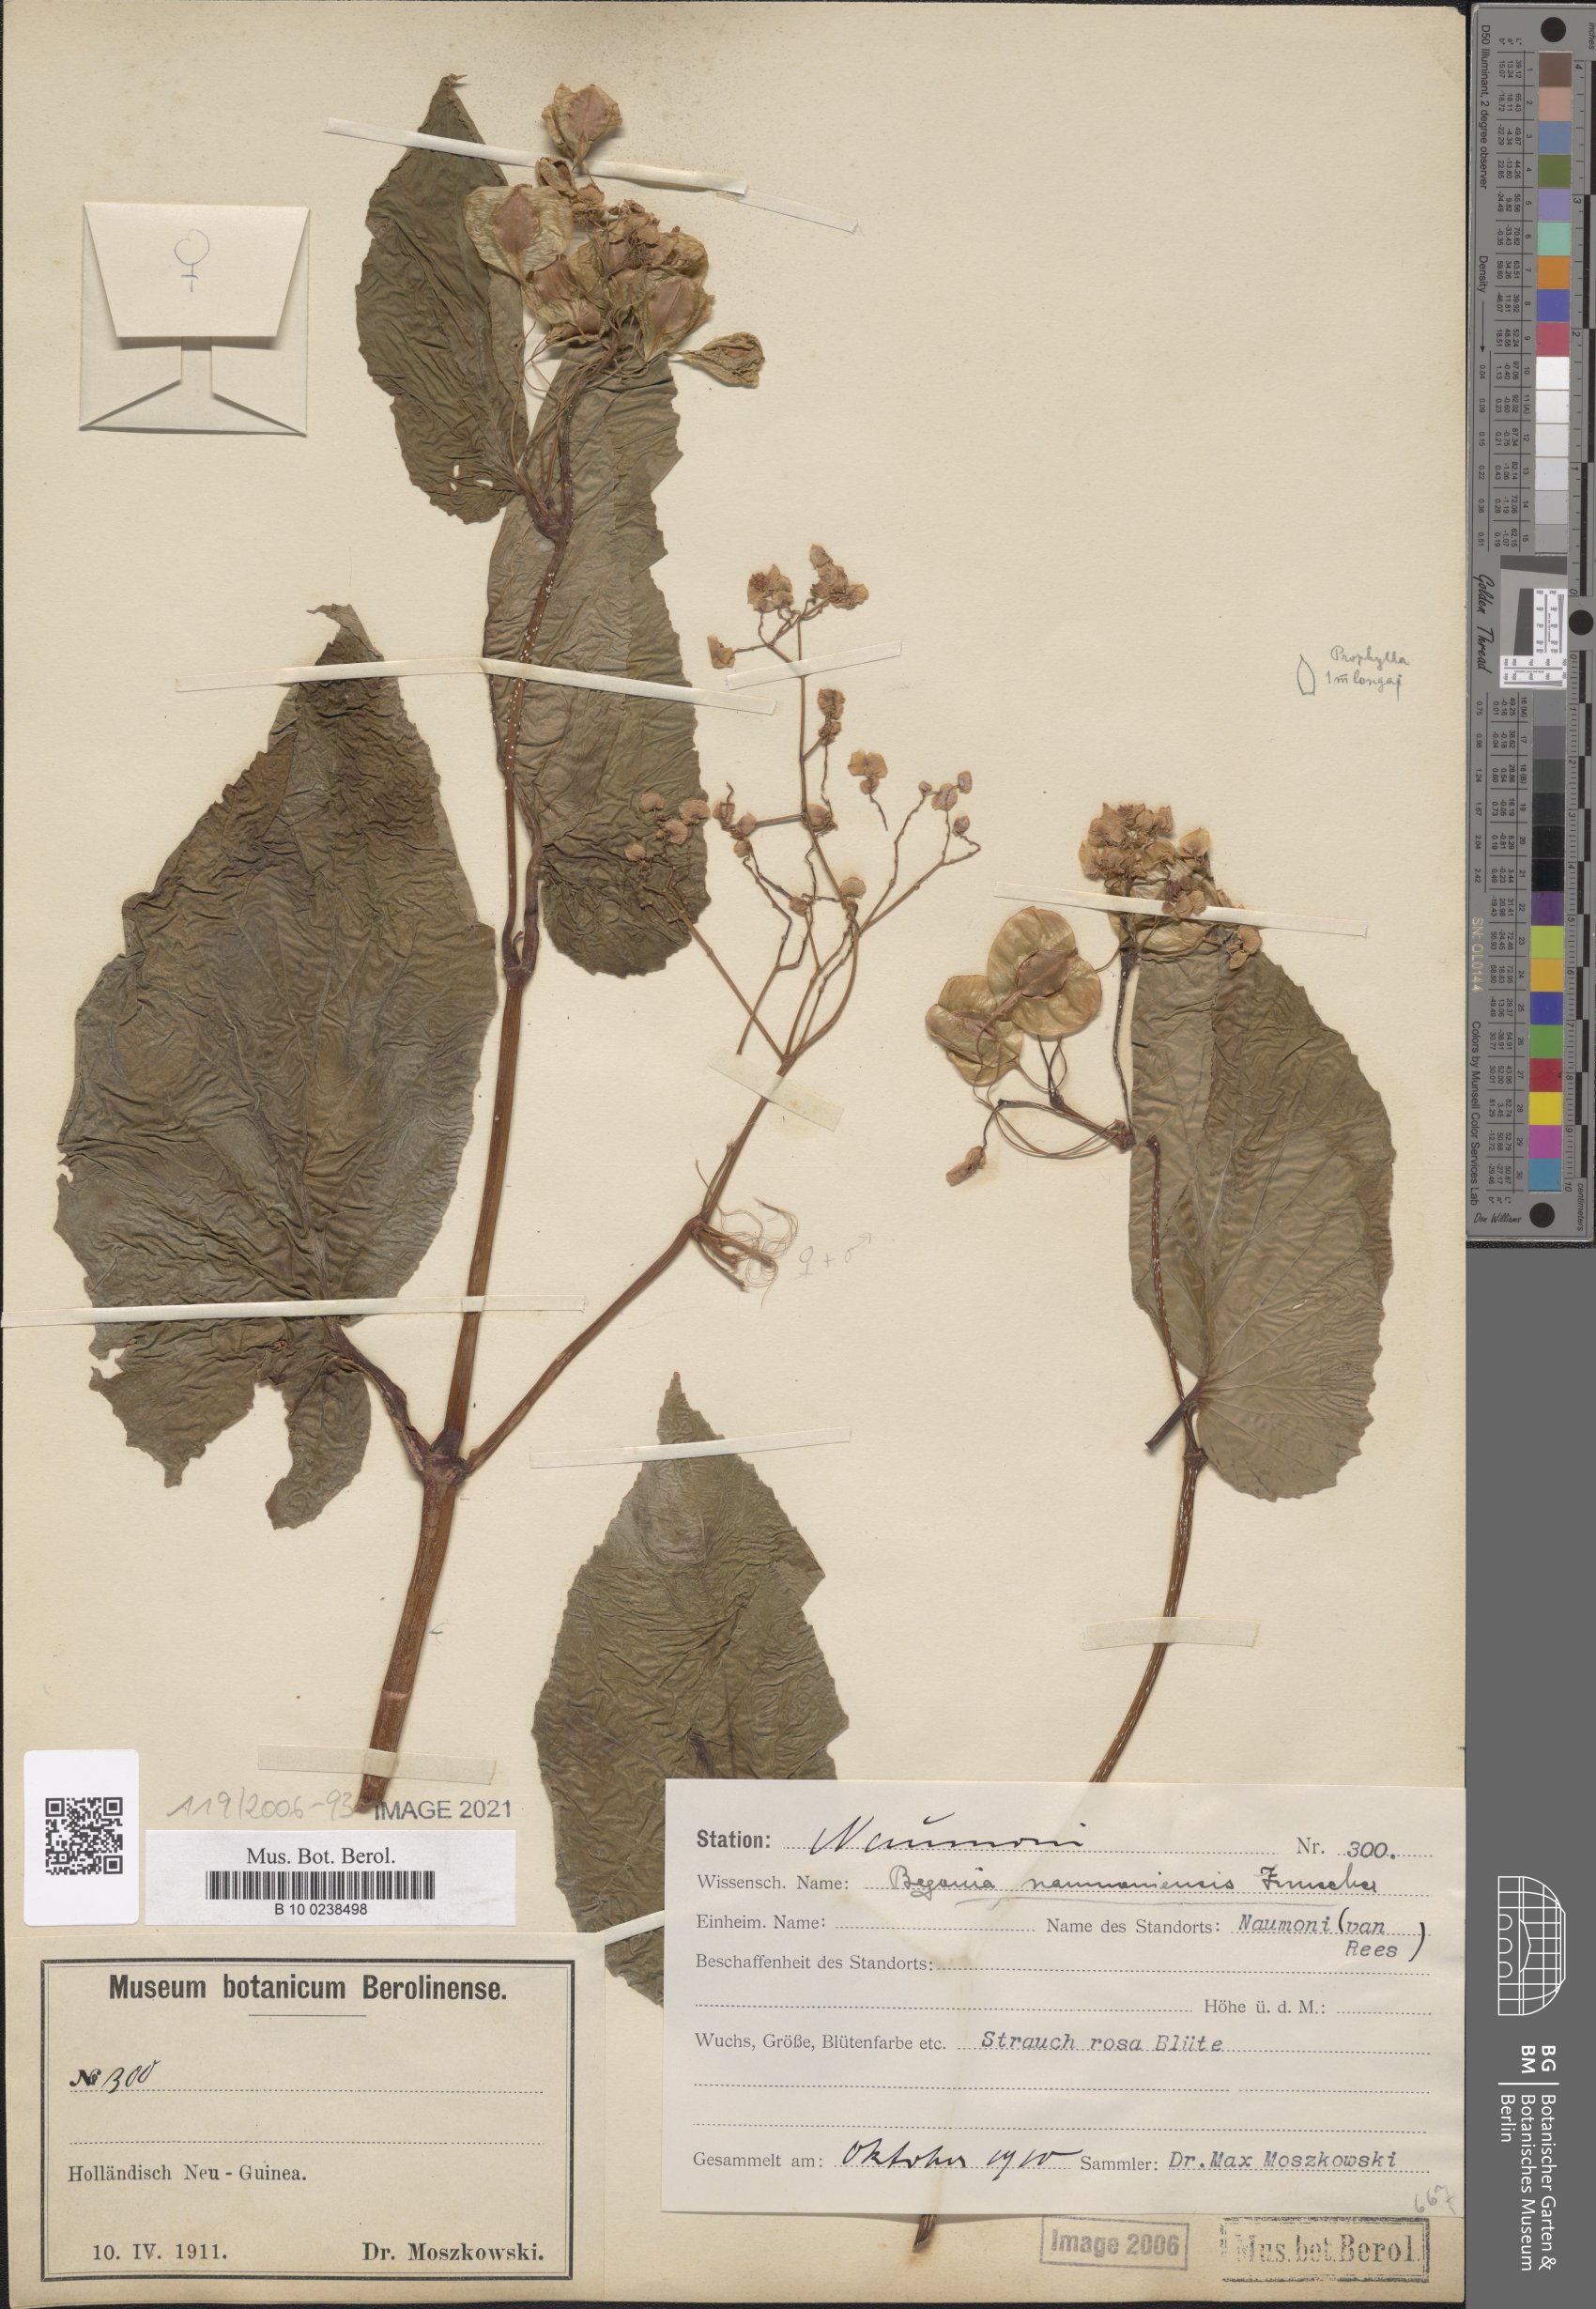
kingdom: Plantae
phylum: Tracheophyta
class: Magnoliopsida
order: Cucurbitales
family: Begoniaceae
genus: Begonia
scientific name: Begonia naumoniensis
